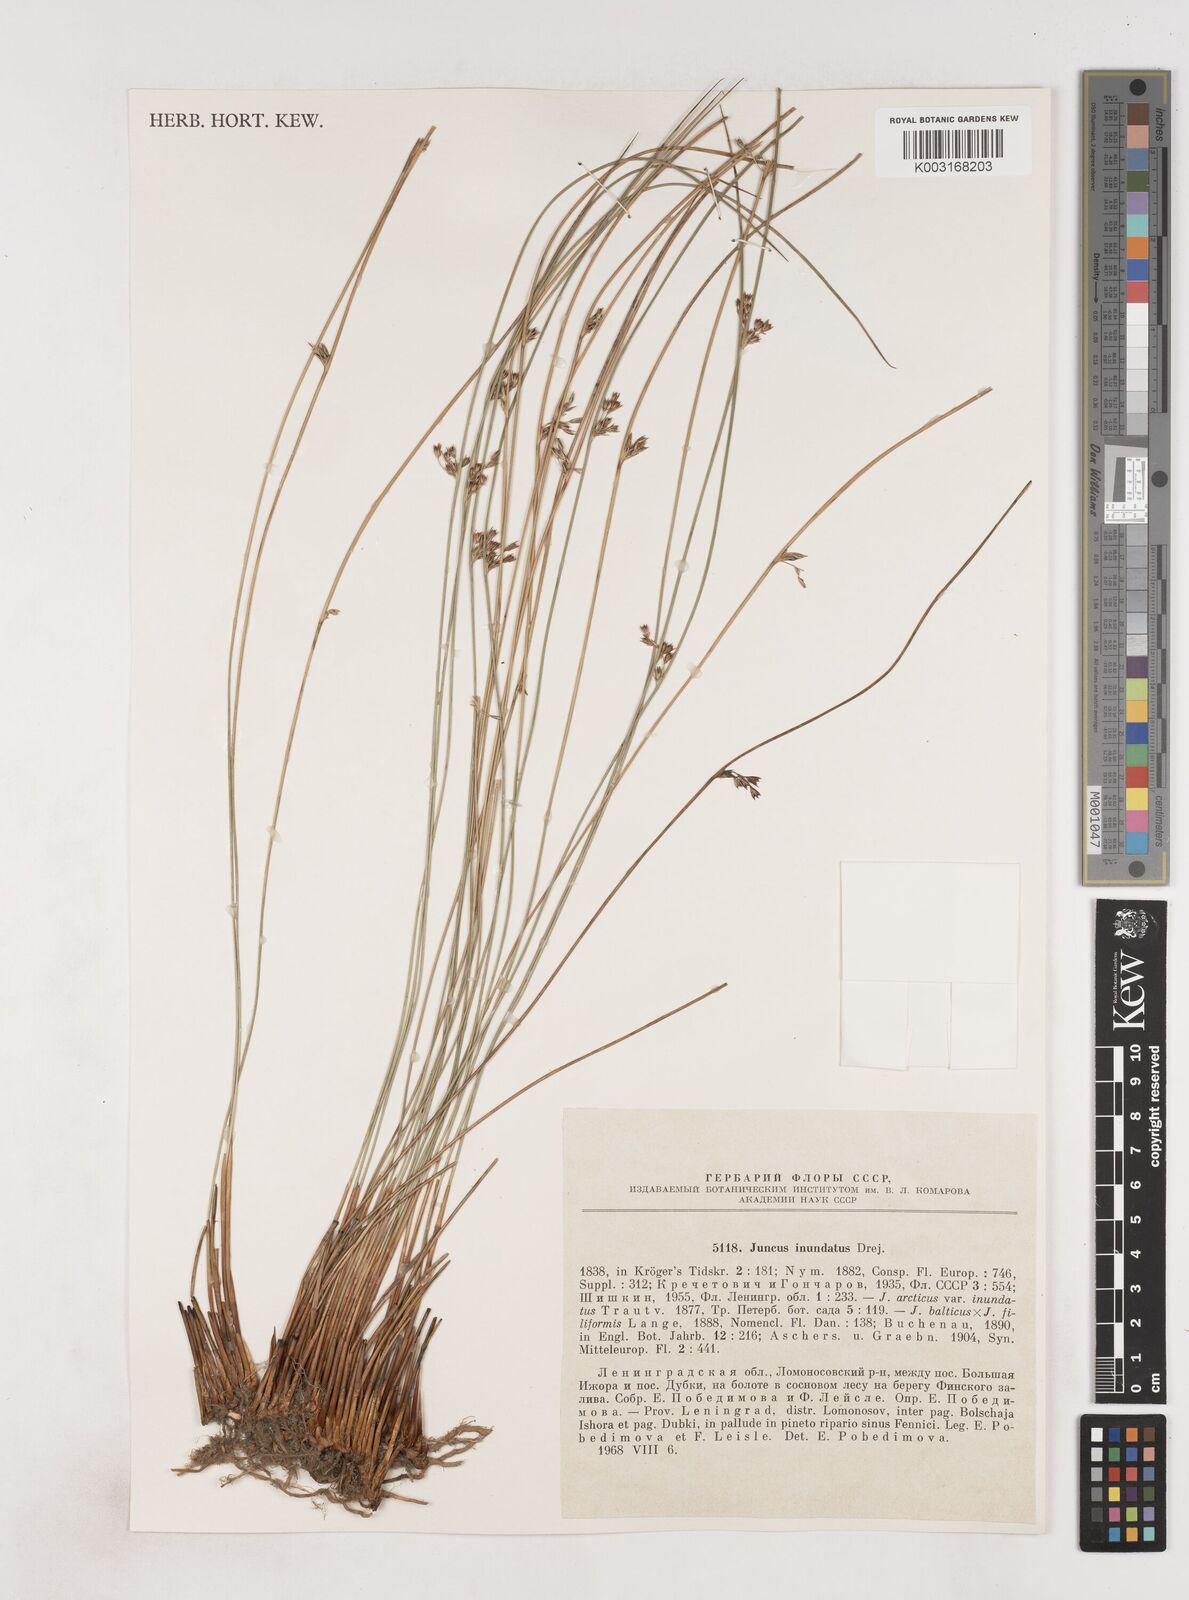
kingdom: Plantae
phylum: Tracheophyta
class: Liliopsida
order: Poales
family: Juncaceae
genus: Juncus
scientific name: Juncus balticus
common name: Baltic rush
